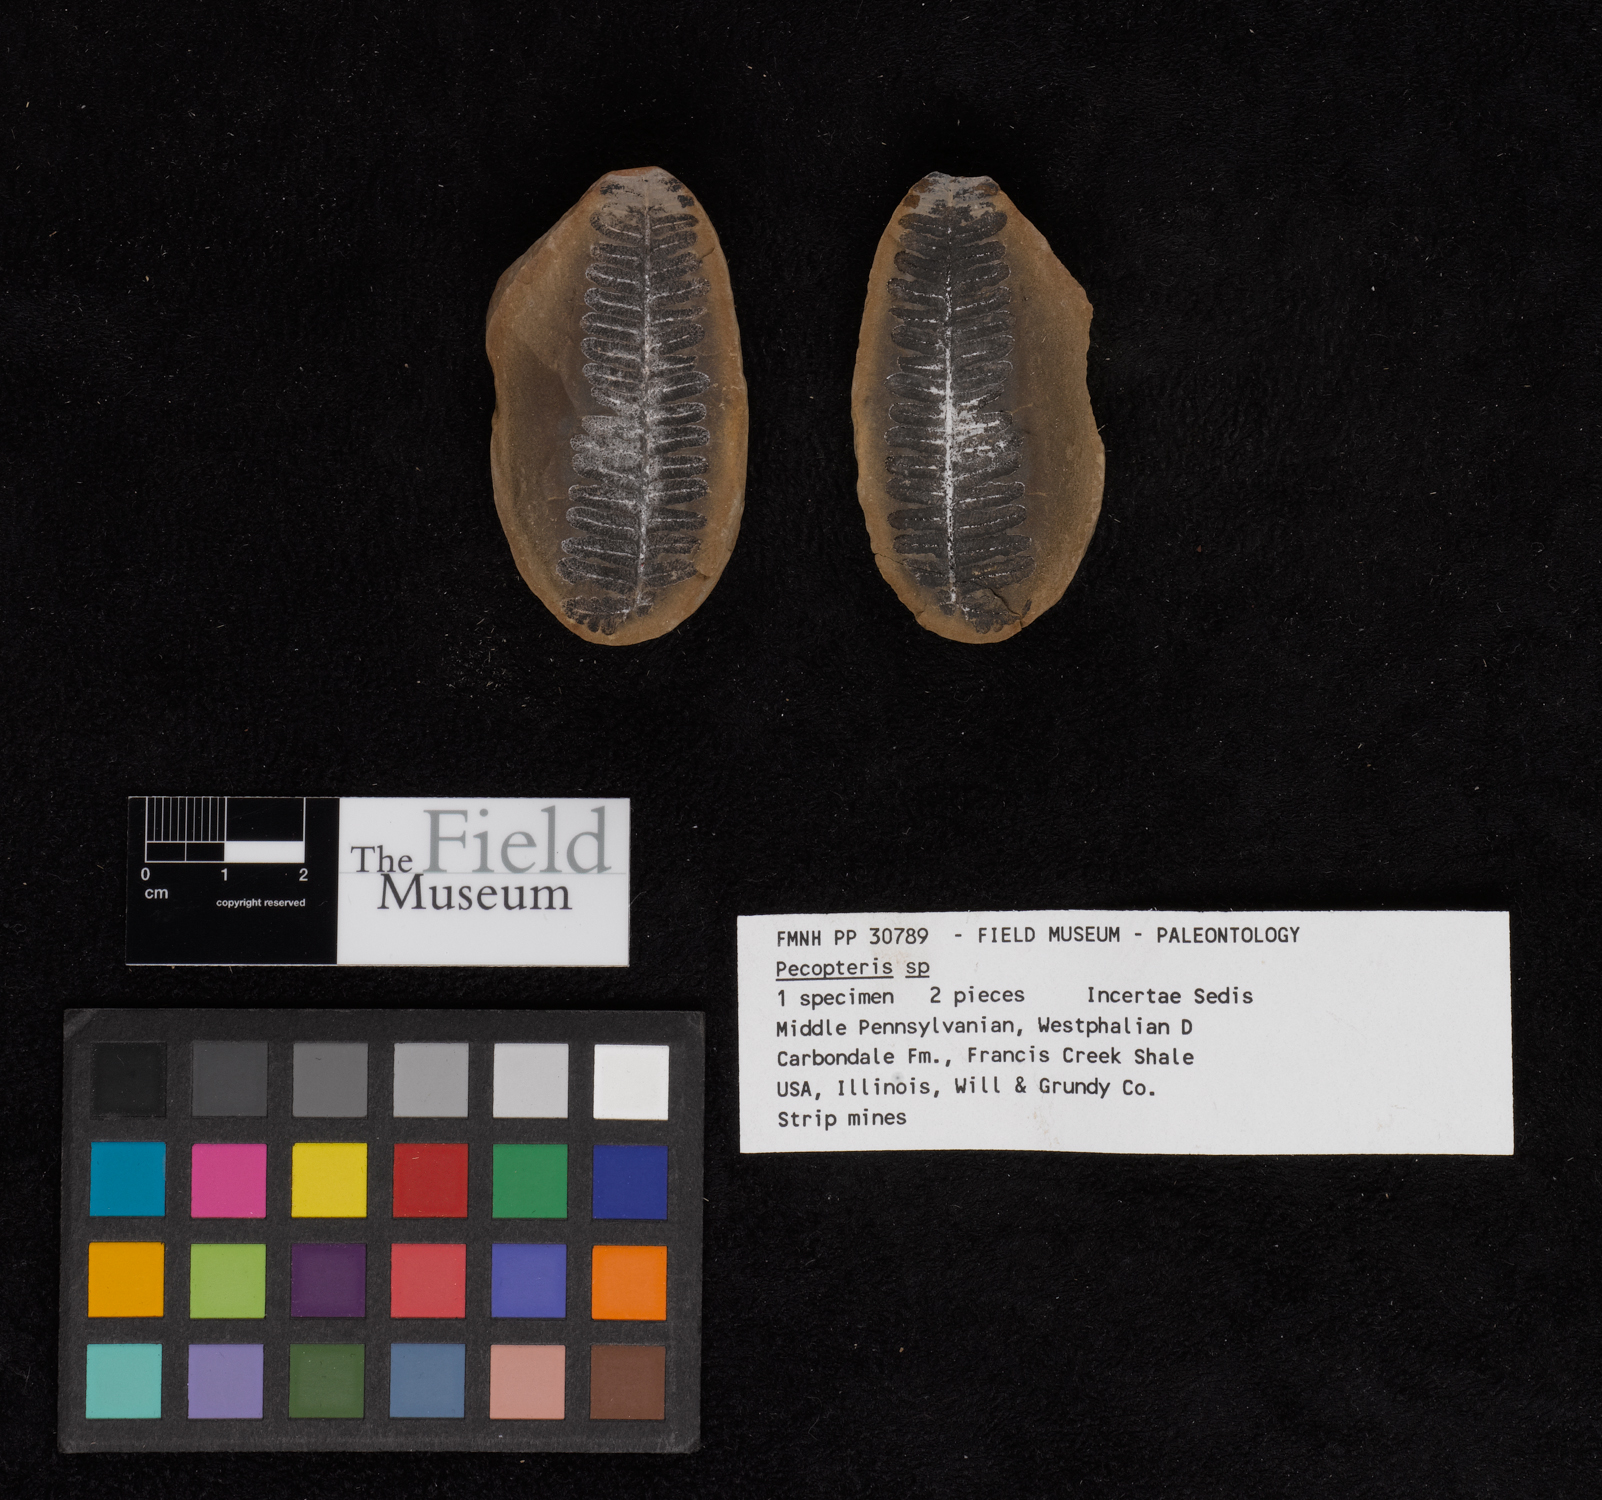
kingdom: Plantae
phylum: Tracheophyta
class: Polypodiopsida
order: Marattiales
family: Asterothecaceae
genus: Pecopteris
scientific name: Pecopteris
